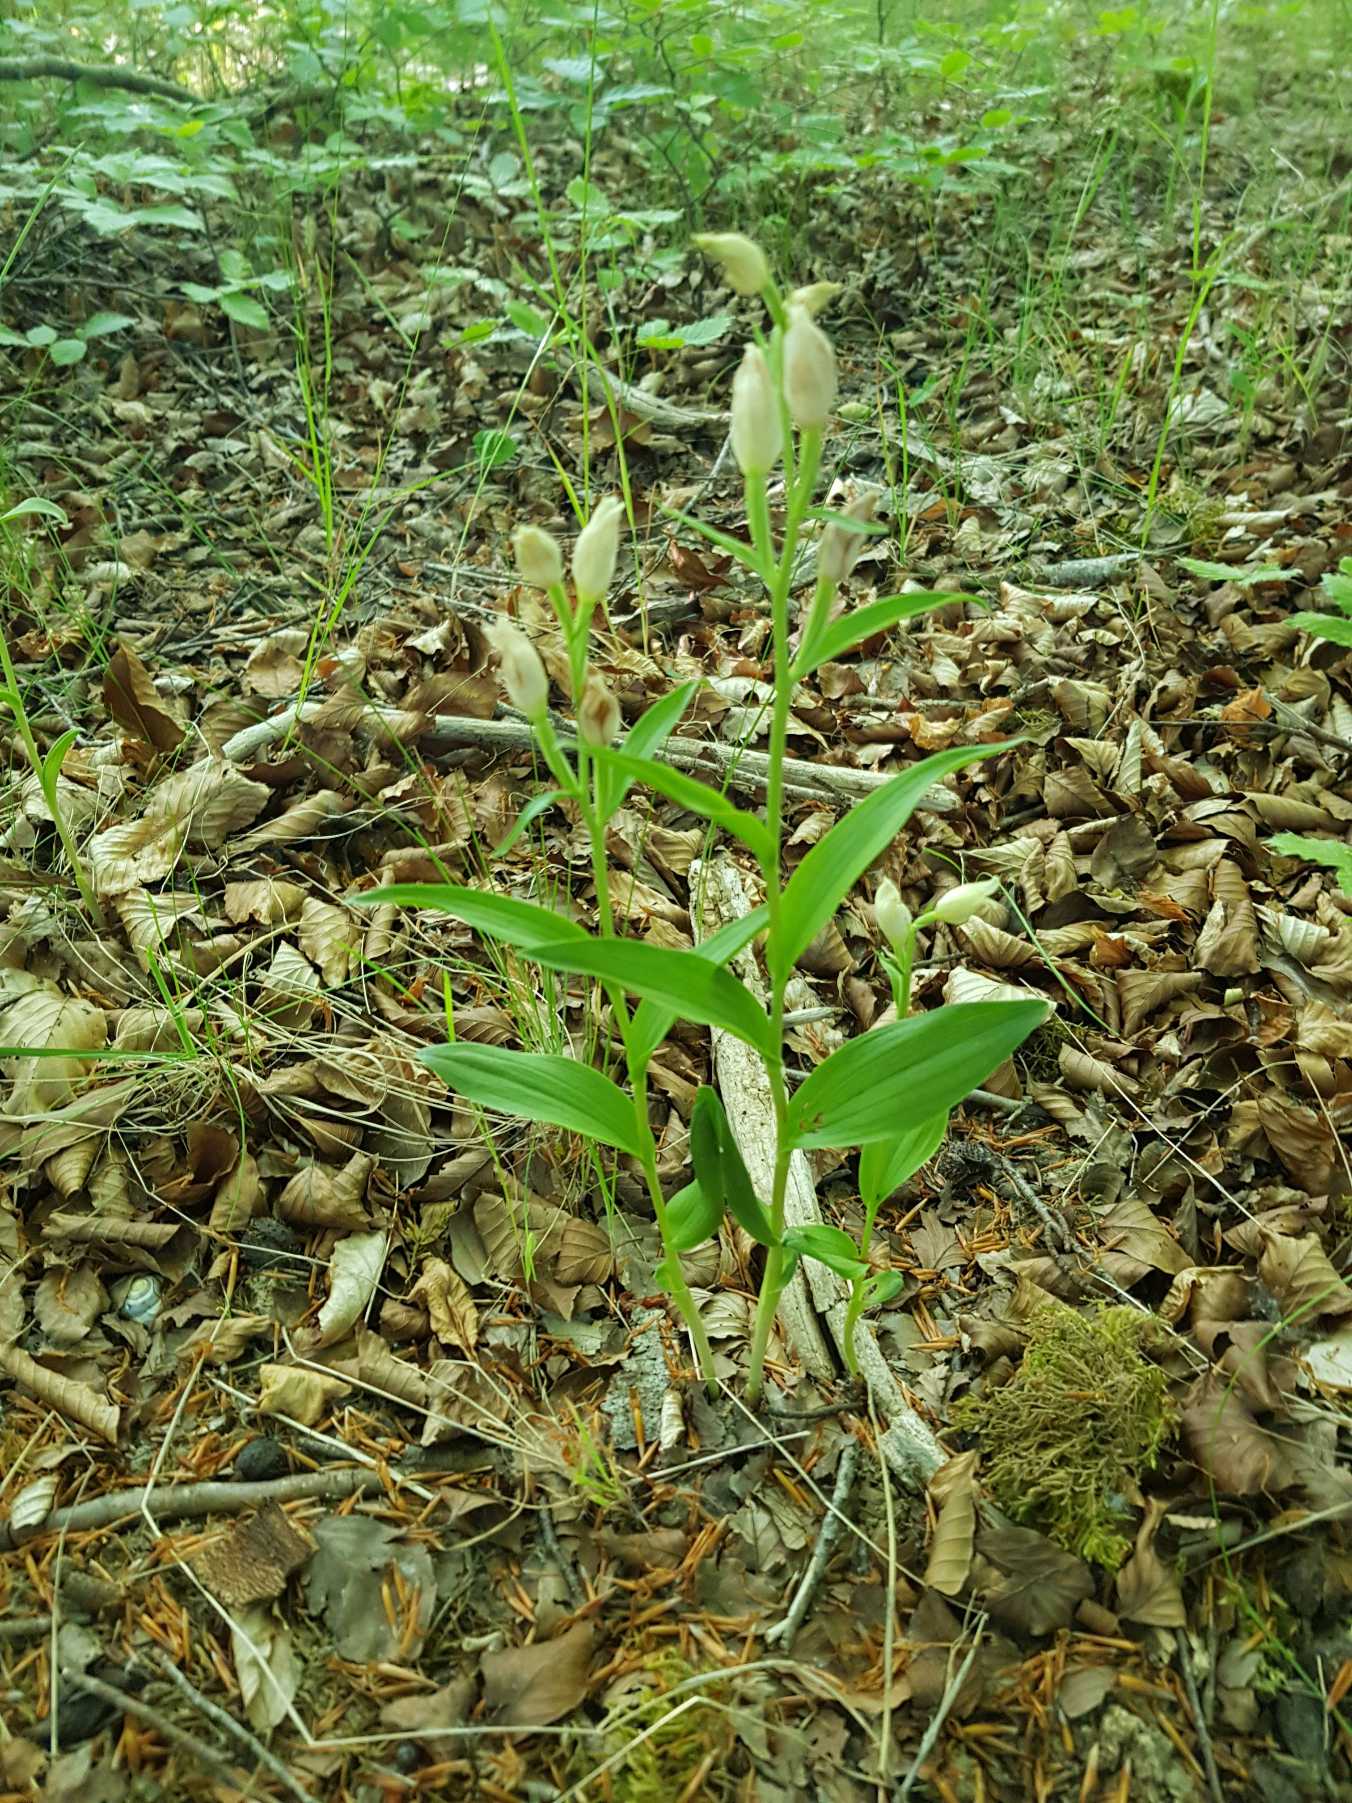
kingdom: Plantae
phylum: Tracheophyta
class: Liliopsida
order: Asparagales
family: Orchidaceae
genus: Cephalanthera
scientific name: Cephalanthera damasonium
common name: Hvidgul skovlilje
